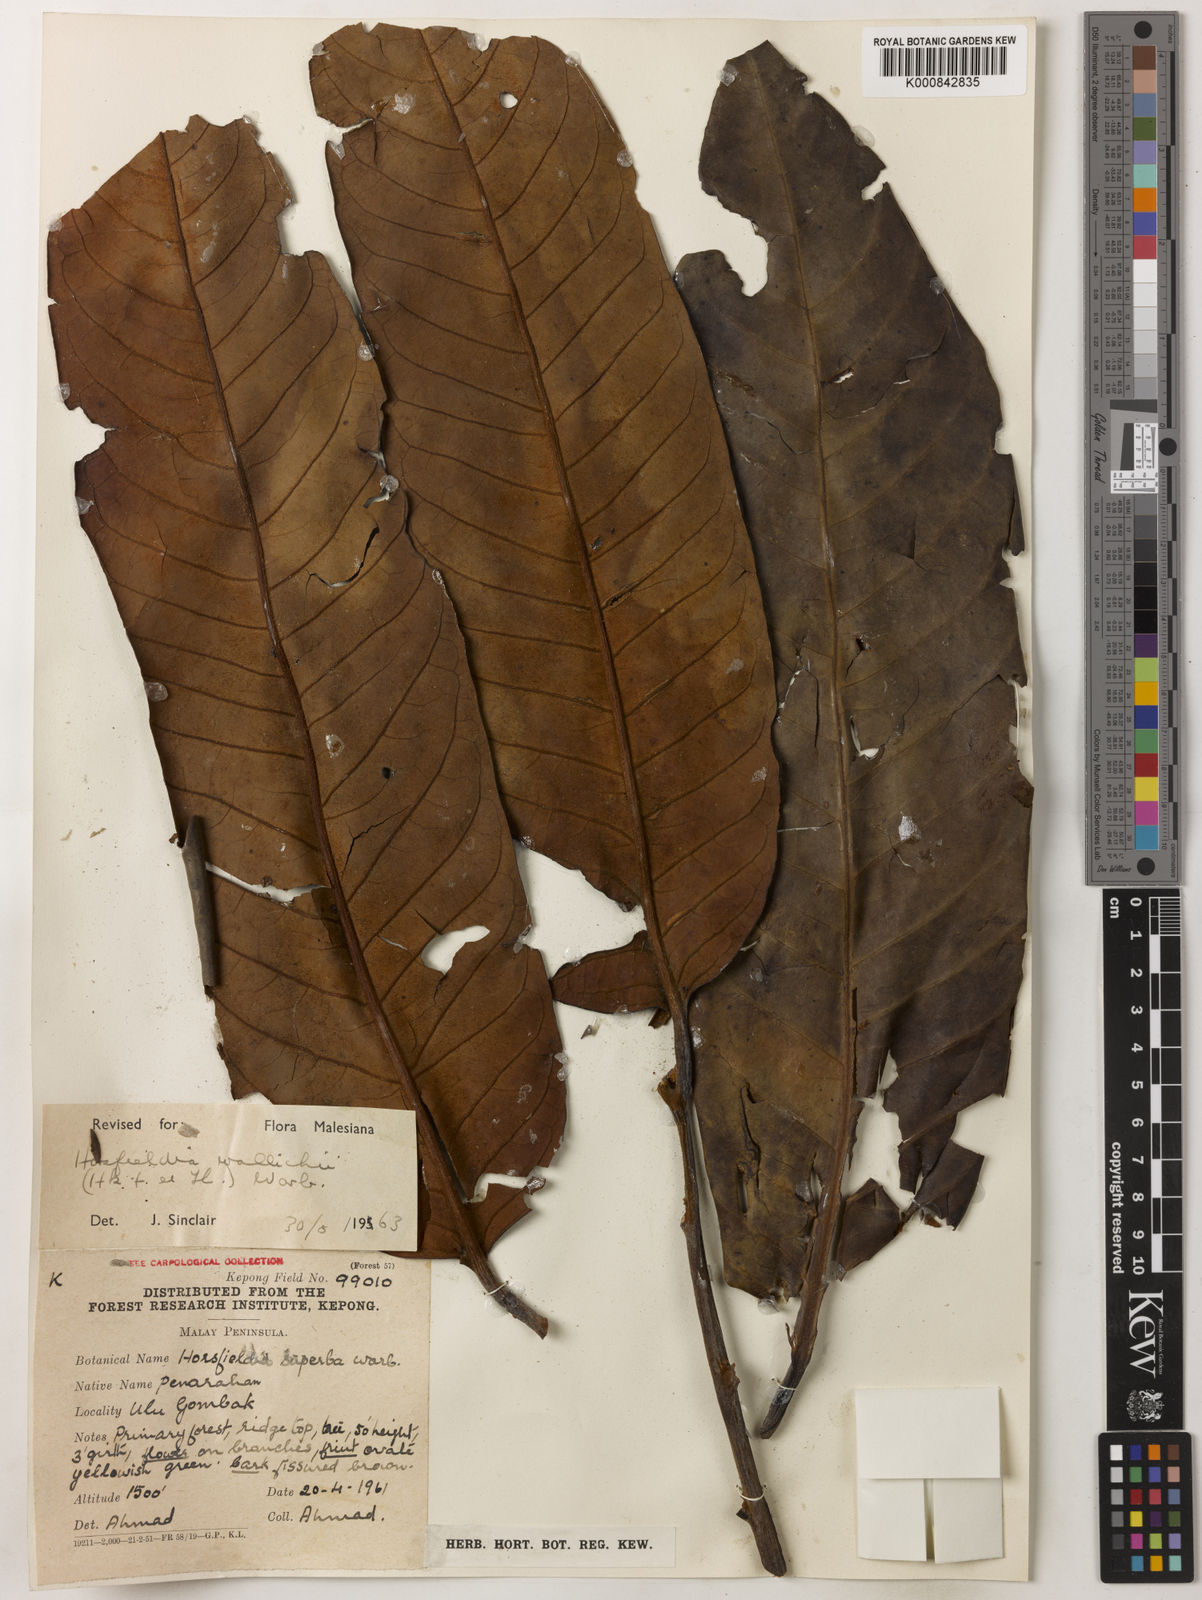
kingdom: Plantae
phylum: Tracheophyta
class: Magnoliopsida
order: Magnoliales
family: Myristicaceae
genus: Horsfieldia
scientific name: Horsfieldia wallichii
